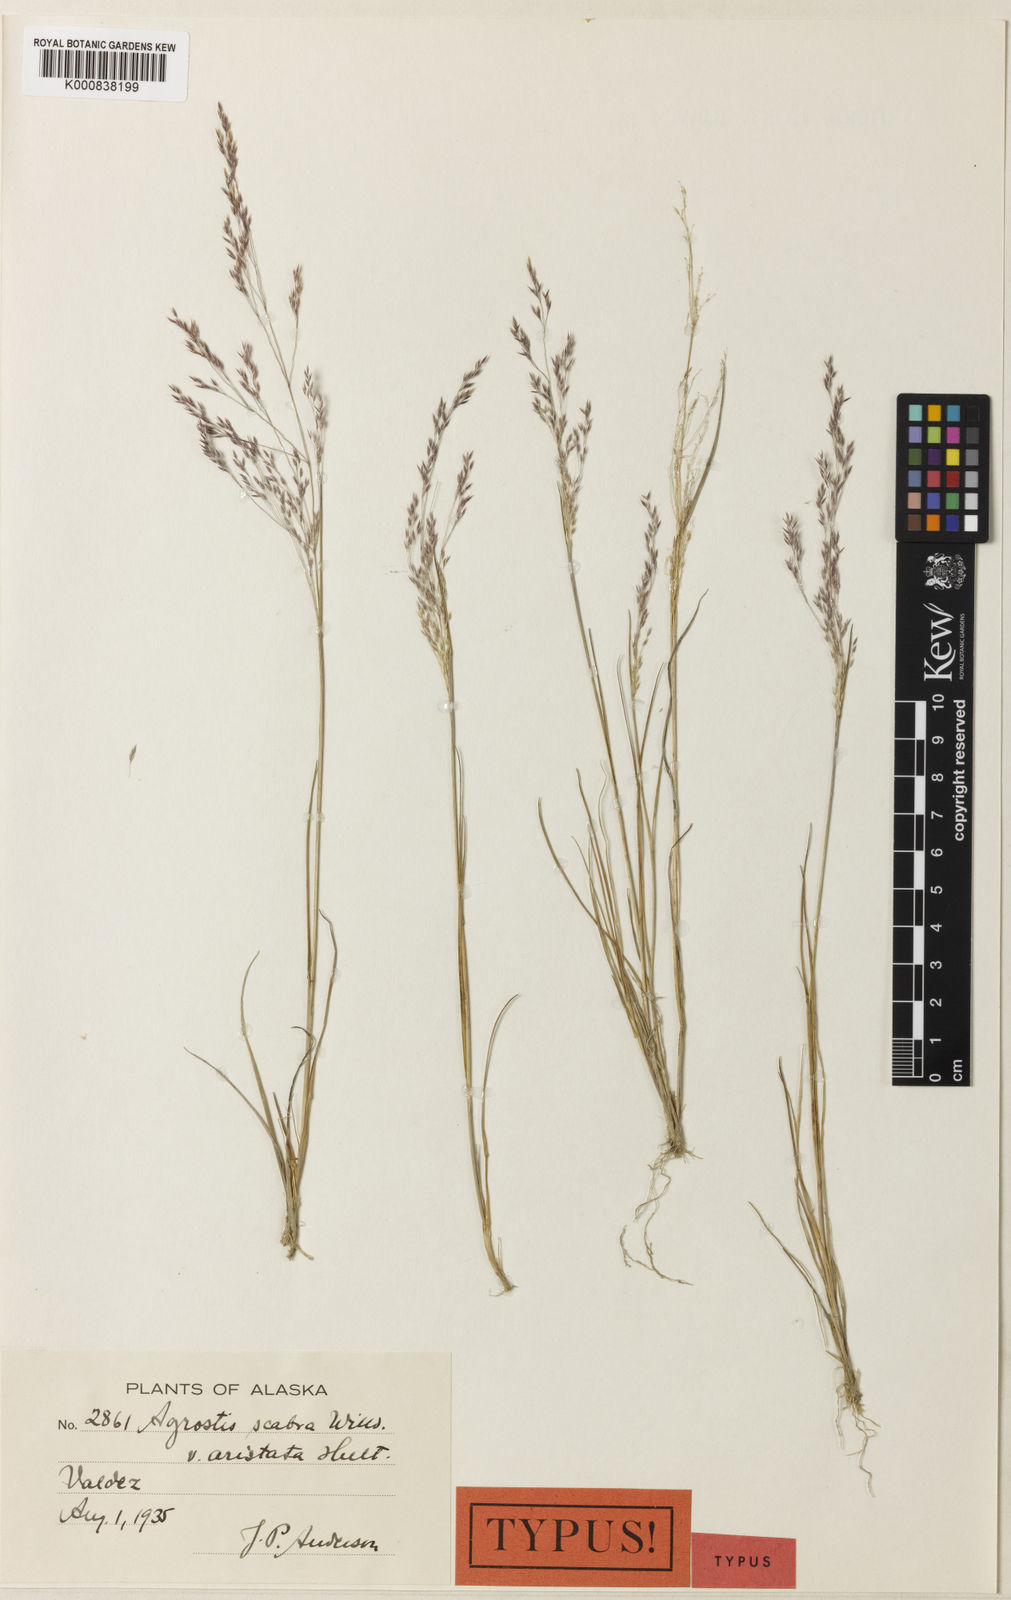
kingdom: Plantae
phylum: Tracheophyta
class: Liliopsida
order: Poales
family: Poaceae
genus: Agrostis
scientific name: Agrostis scabra
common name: Rough bent
